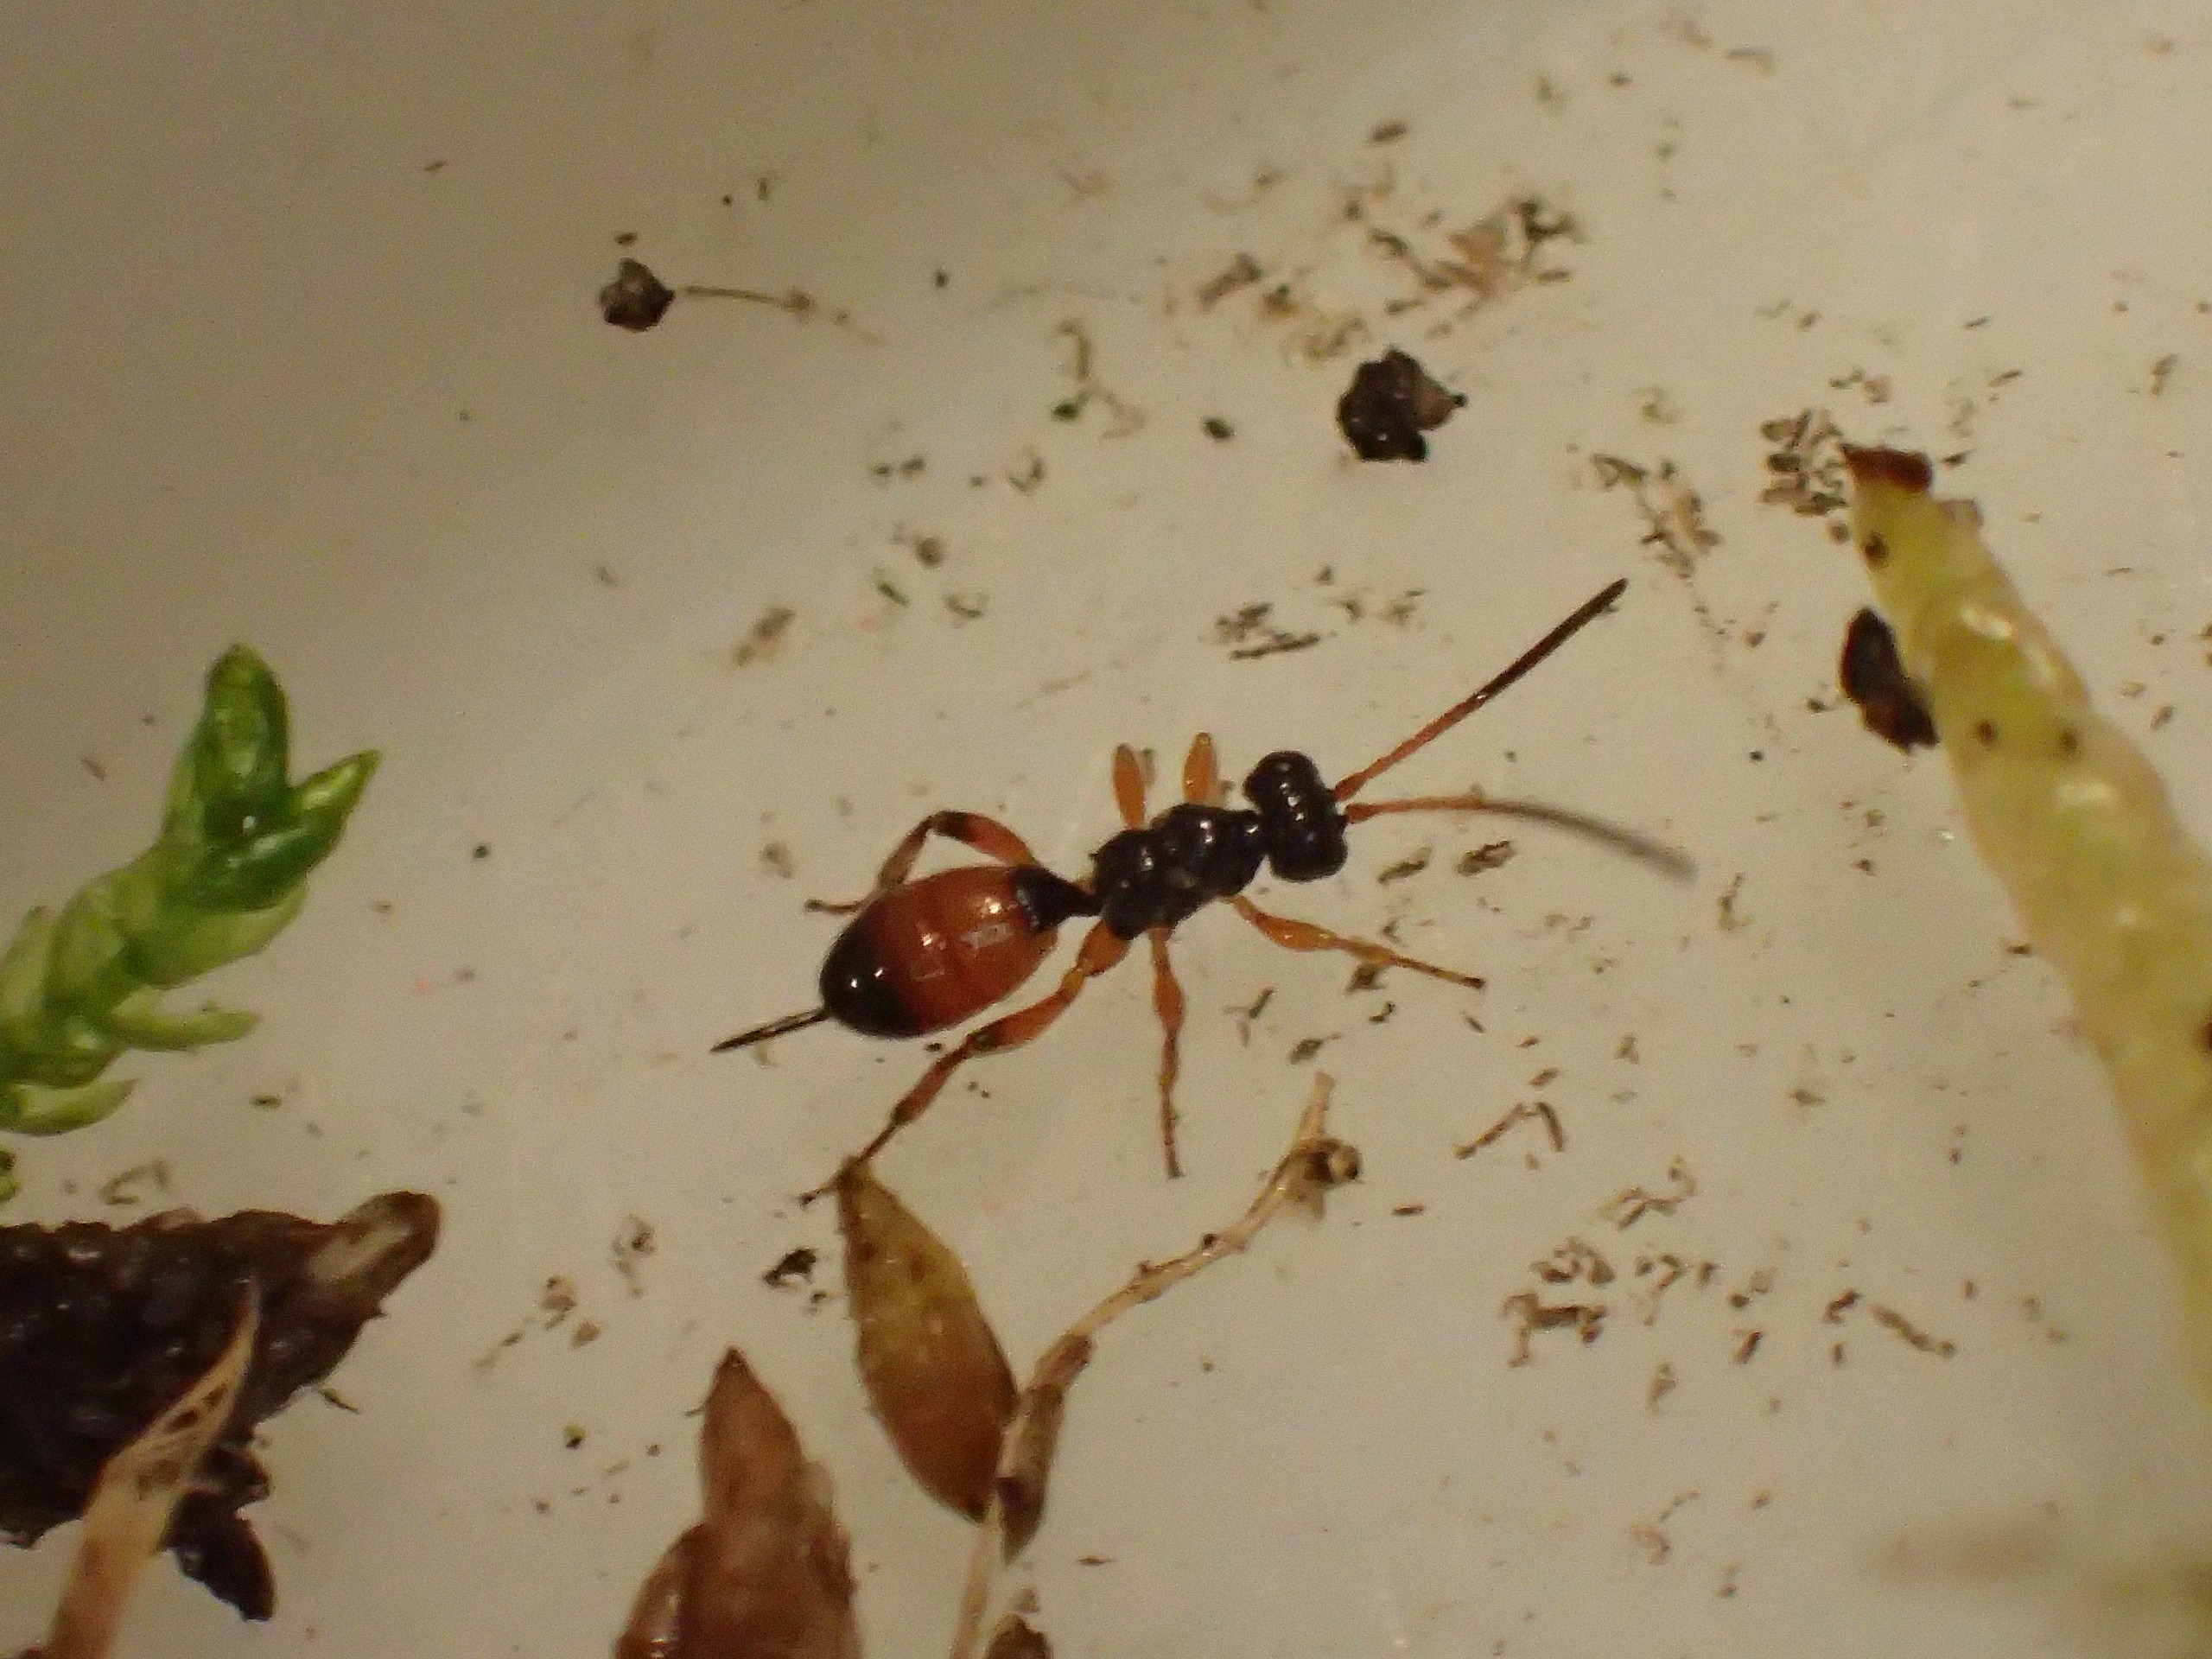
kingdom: Animalia
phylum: Arthropoda
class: Insecta
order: Hymenoptera
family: Ichneumonidae
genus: Theroscopus
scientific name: Theroscopus pedestris
